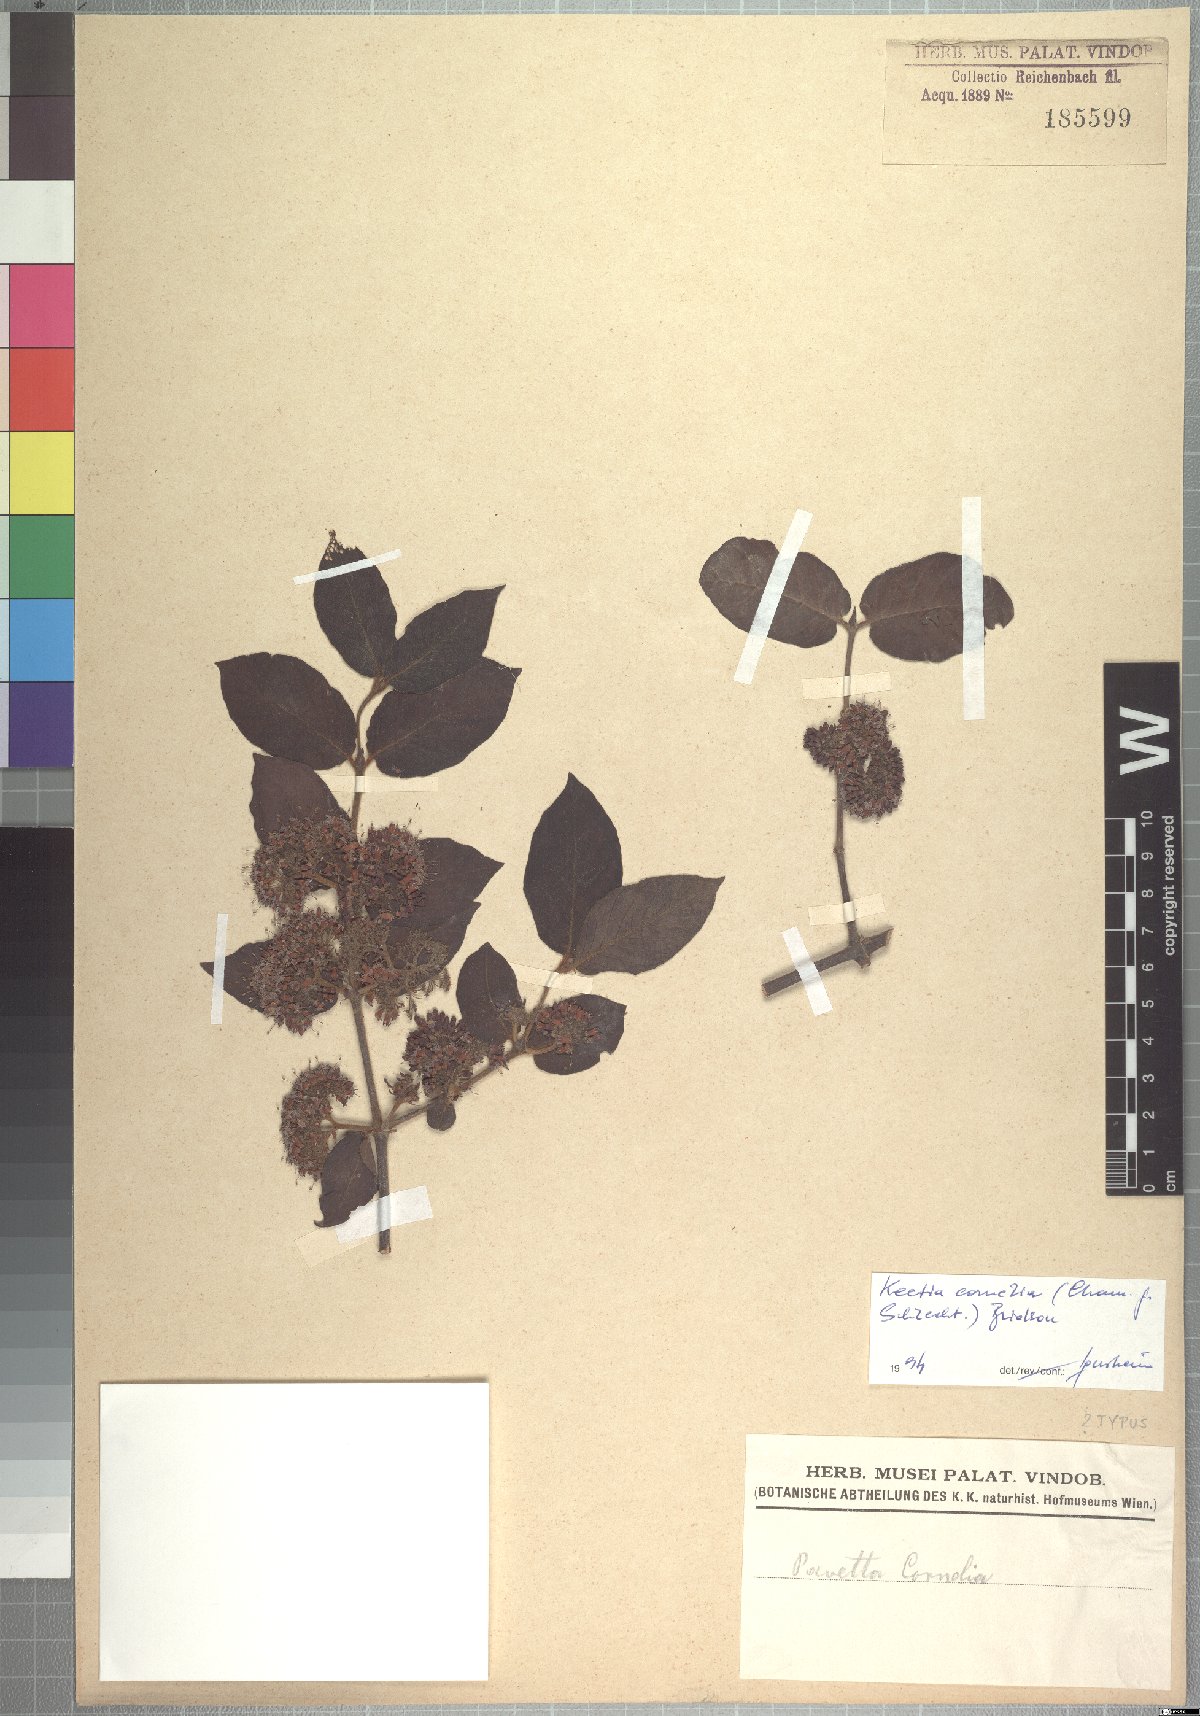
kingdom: Plantae
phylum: Tracheophyta
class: Magnoliopsida
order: Gentianales
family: Rubiaceae
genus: Keetia
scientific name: Keetia cornelia
